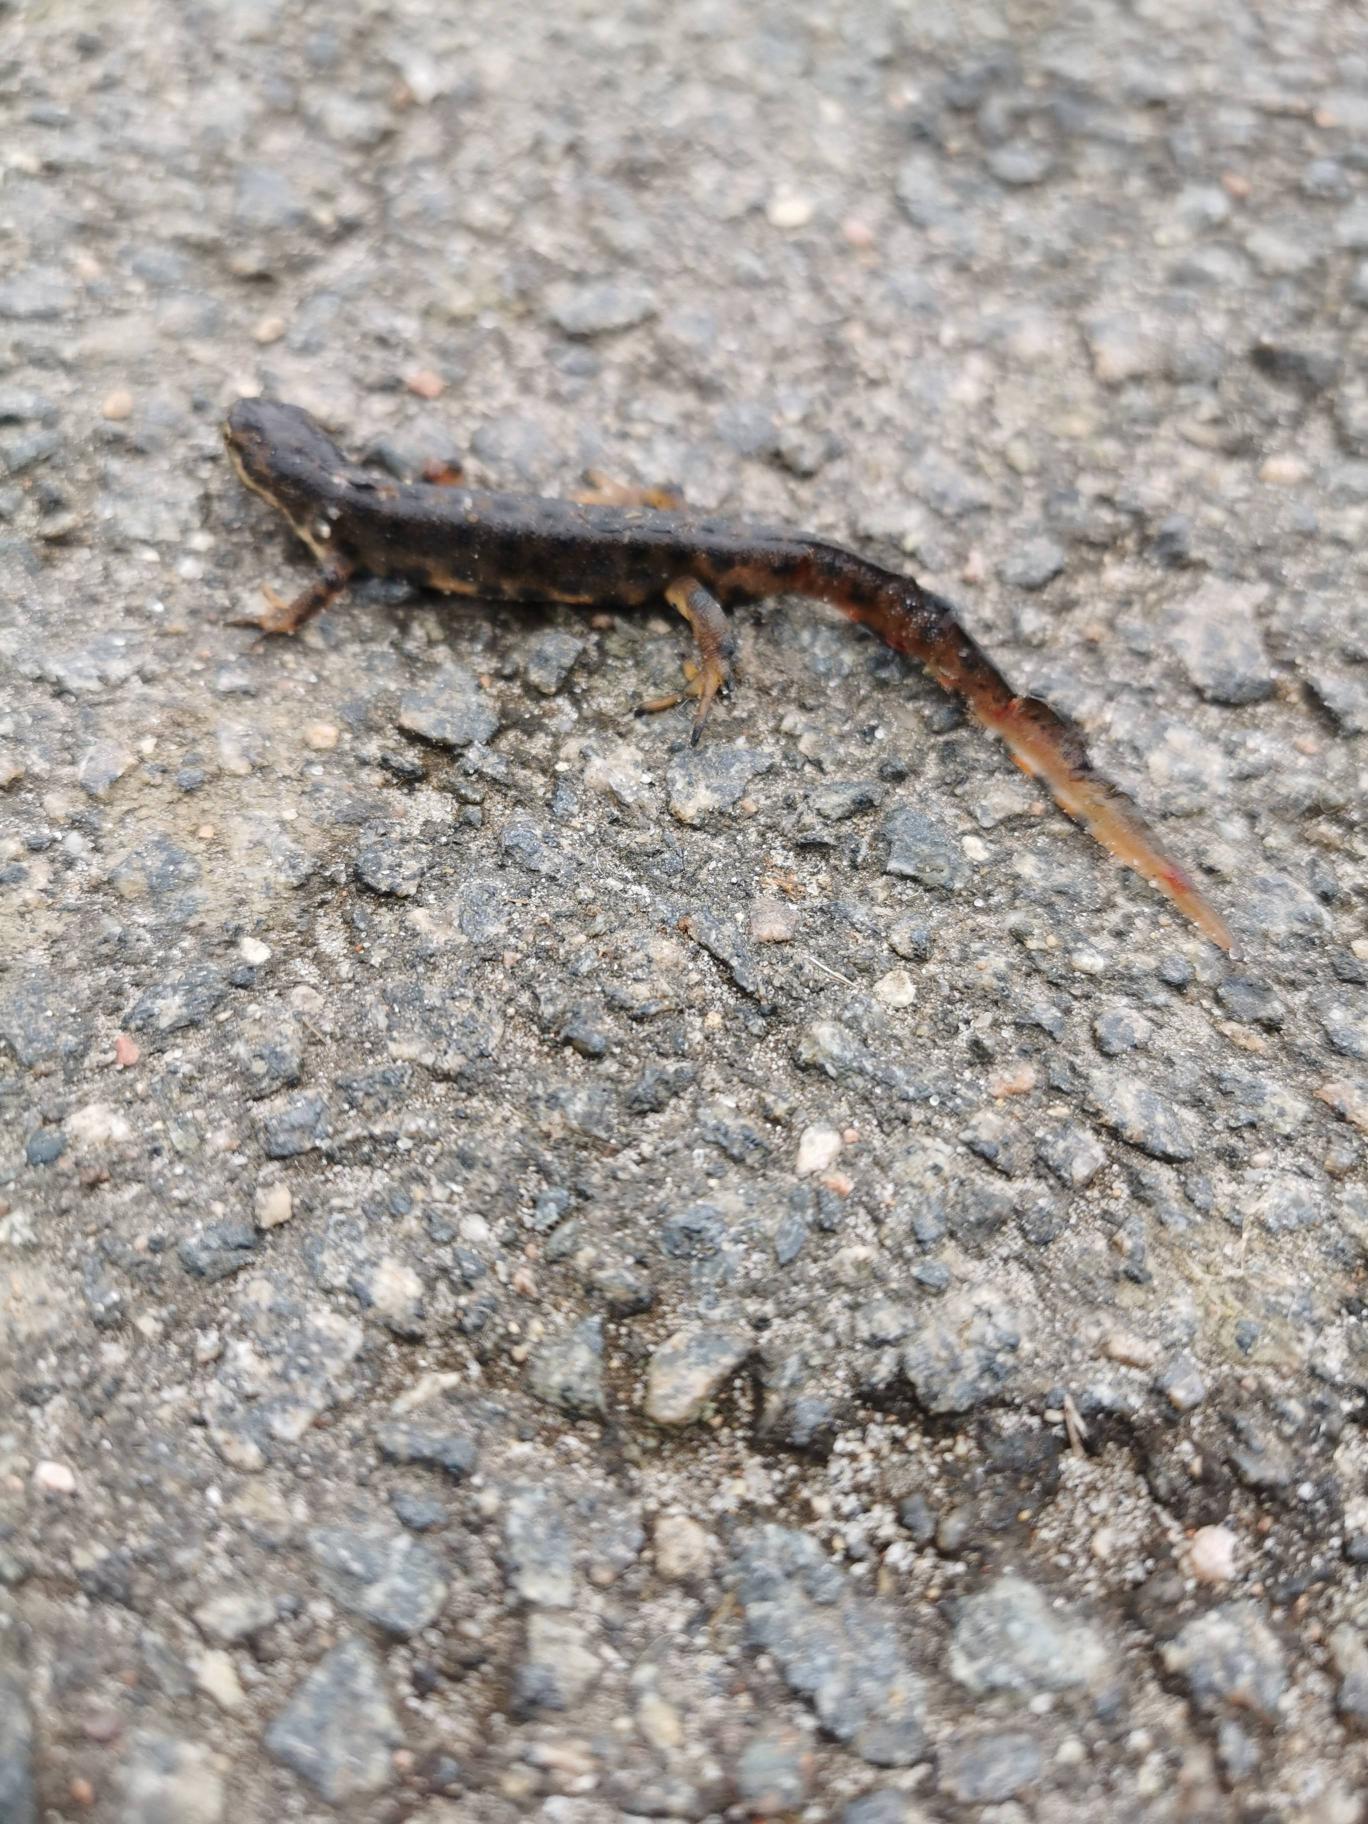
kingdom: Animalia
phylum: Chordata
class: Amphibia
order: Caudata
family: Salamandridae
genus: Lissotriton
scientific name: Lissotriton vulgaris
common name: Lille vandsalamander
